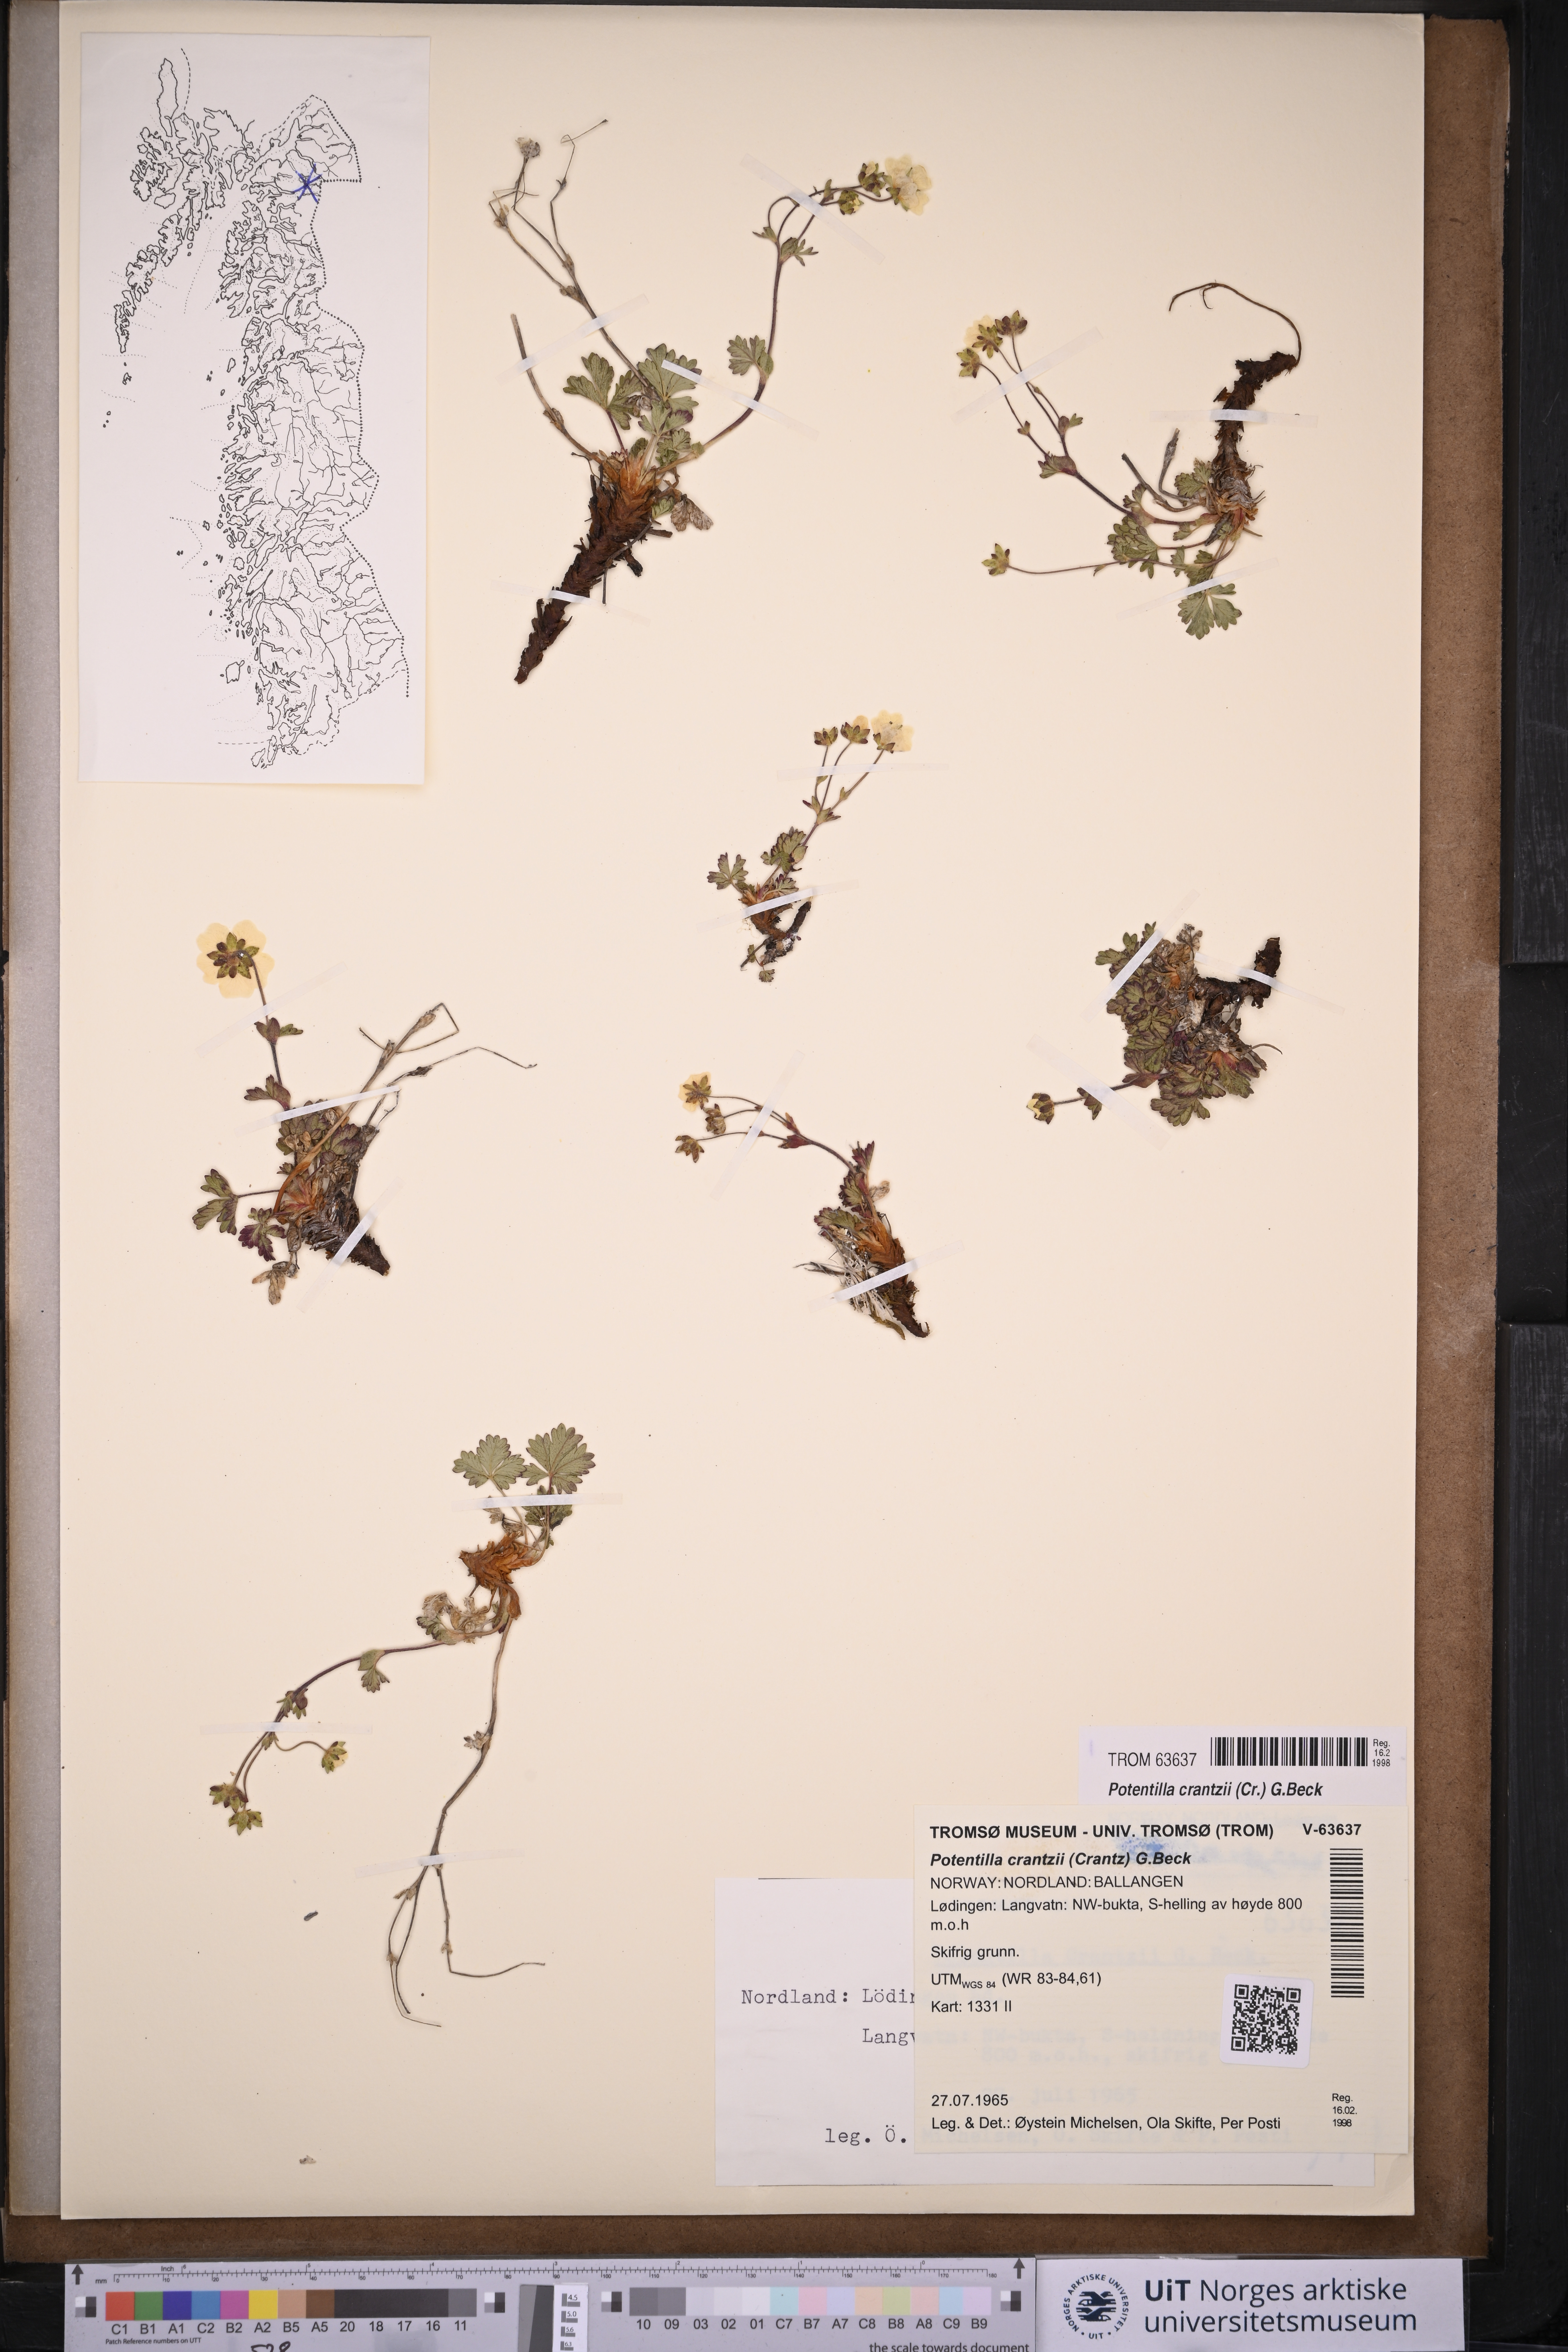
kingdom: Plantae
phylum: Tracheophyta
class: Magnoliopsida
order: Rosales
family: Rosaceae
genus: Potentilla
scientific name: Potentilla crantzii
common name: Alpine cinquefoil
